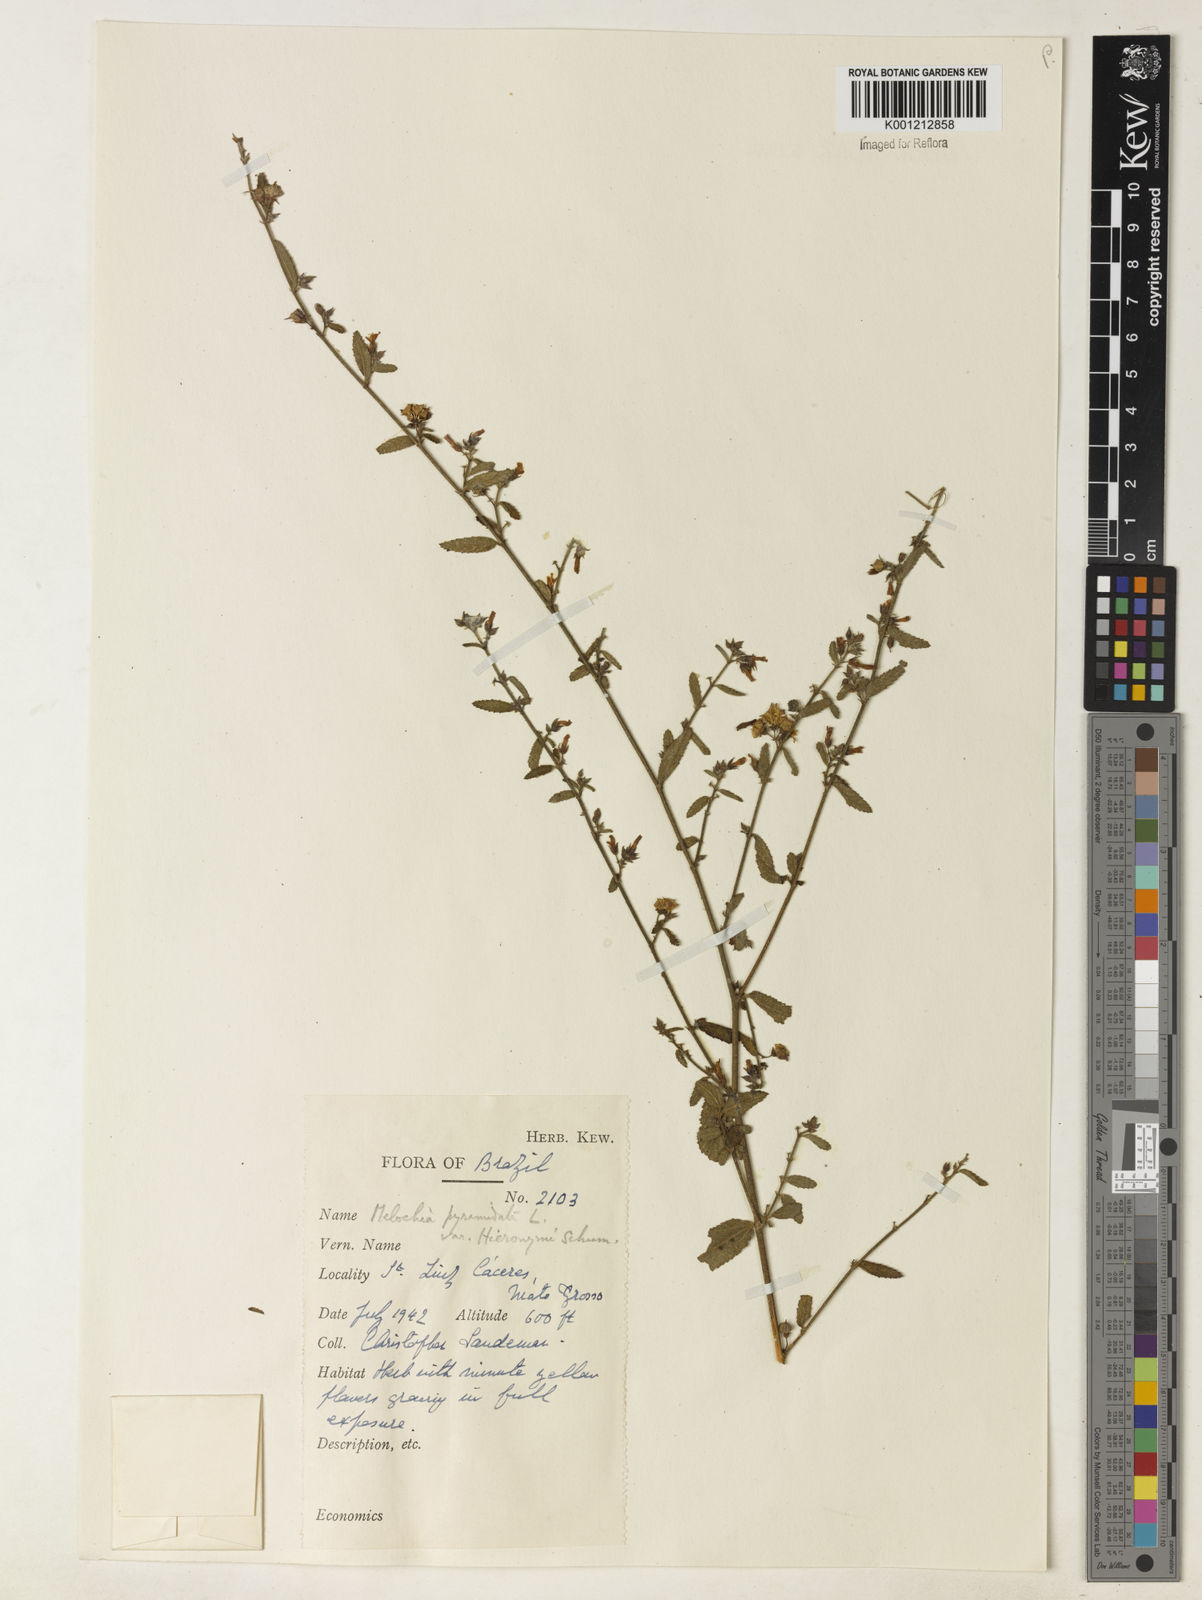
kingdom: Plantae
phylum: Tracheophyta
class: Magnoliopsida
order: Malvales
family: Malvaceae
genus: Melochia
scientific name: Melochia pyramidata
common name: Pyramidflower
